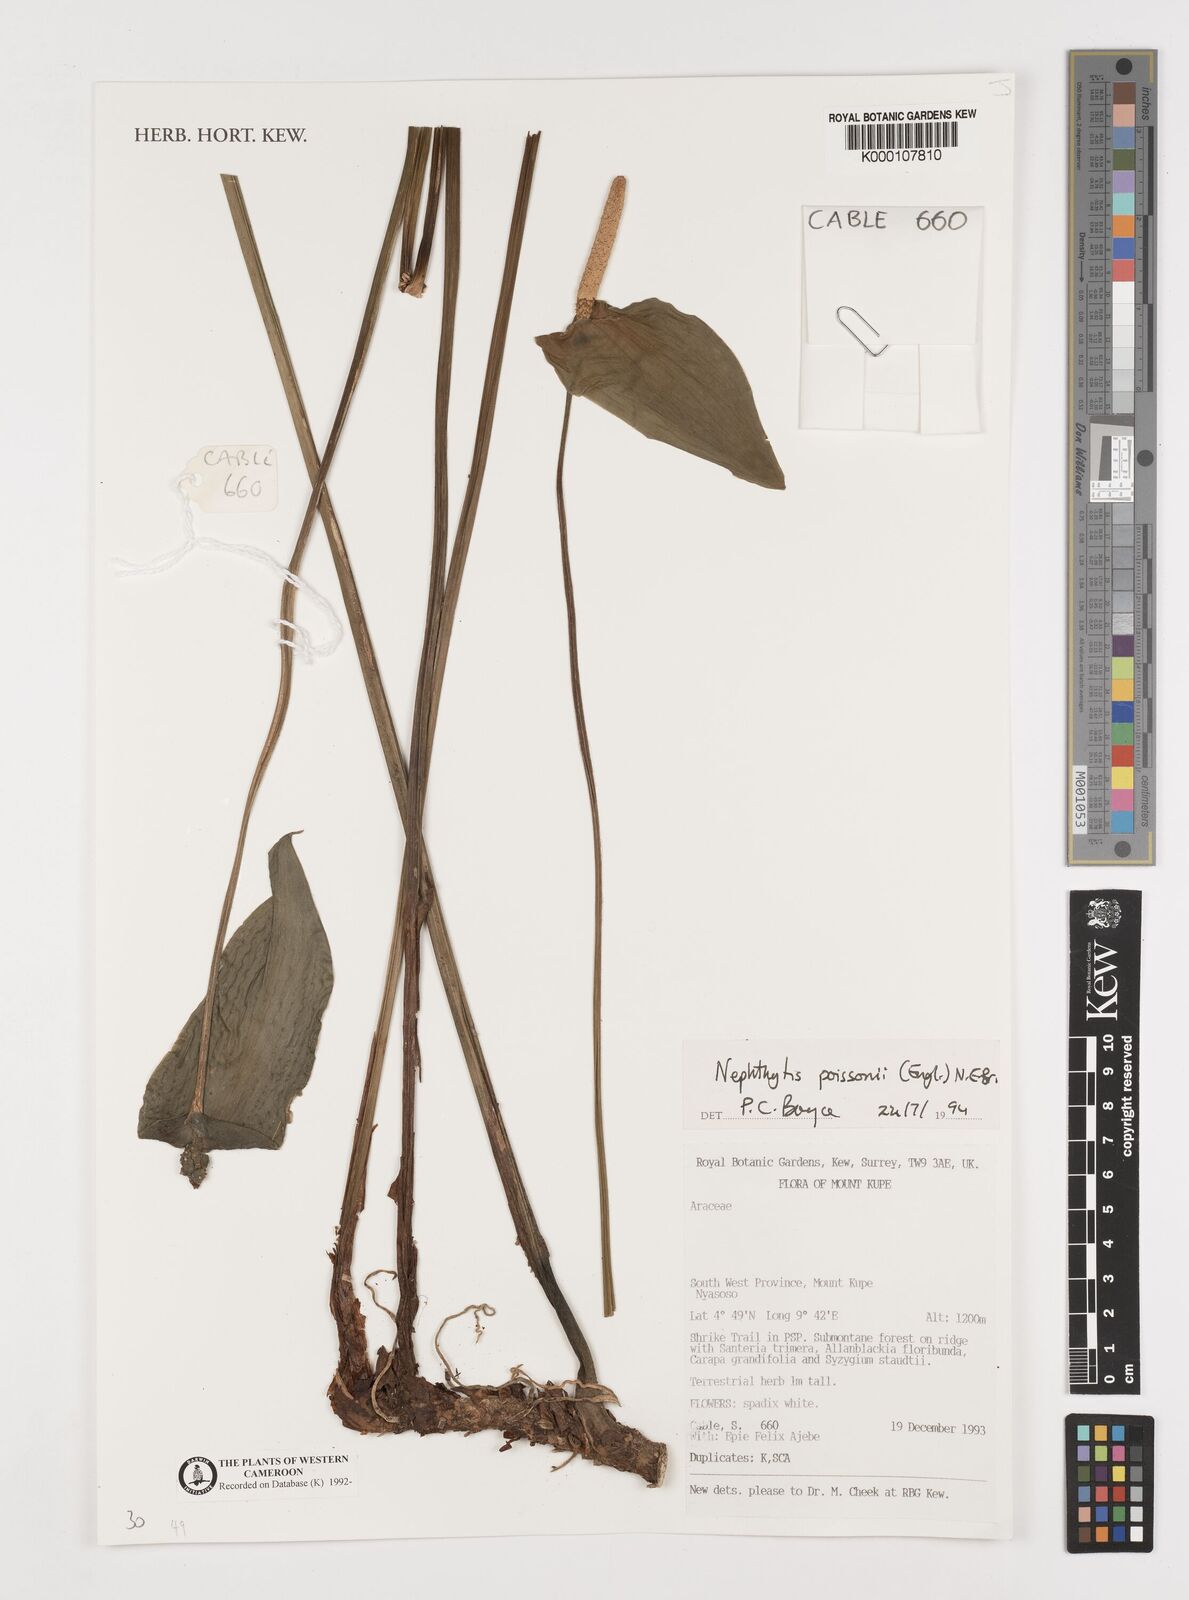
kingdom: Plantae
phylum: Tracheophyta
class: Liliopsida
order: Alismatales
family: Araceae
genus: Nephthytis
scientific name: Nephthytis poissonii
